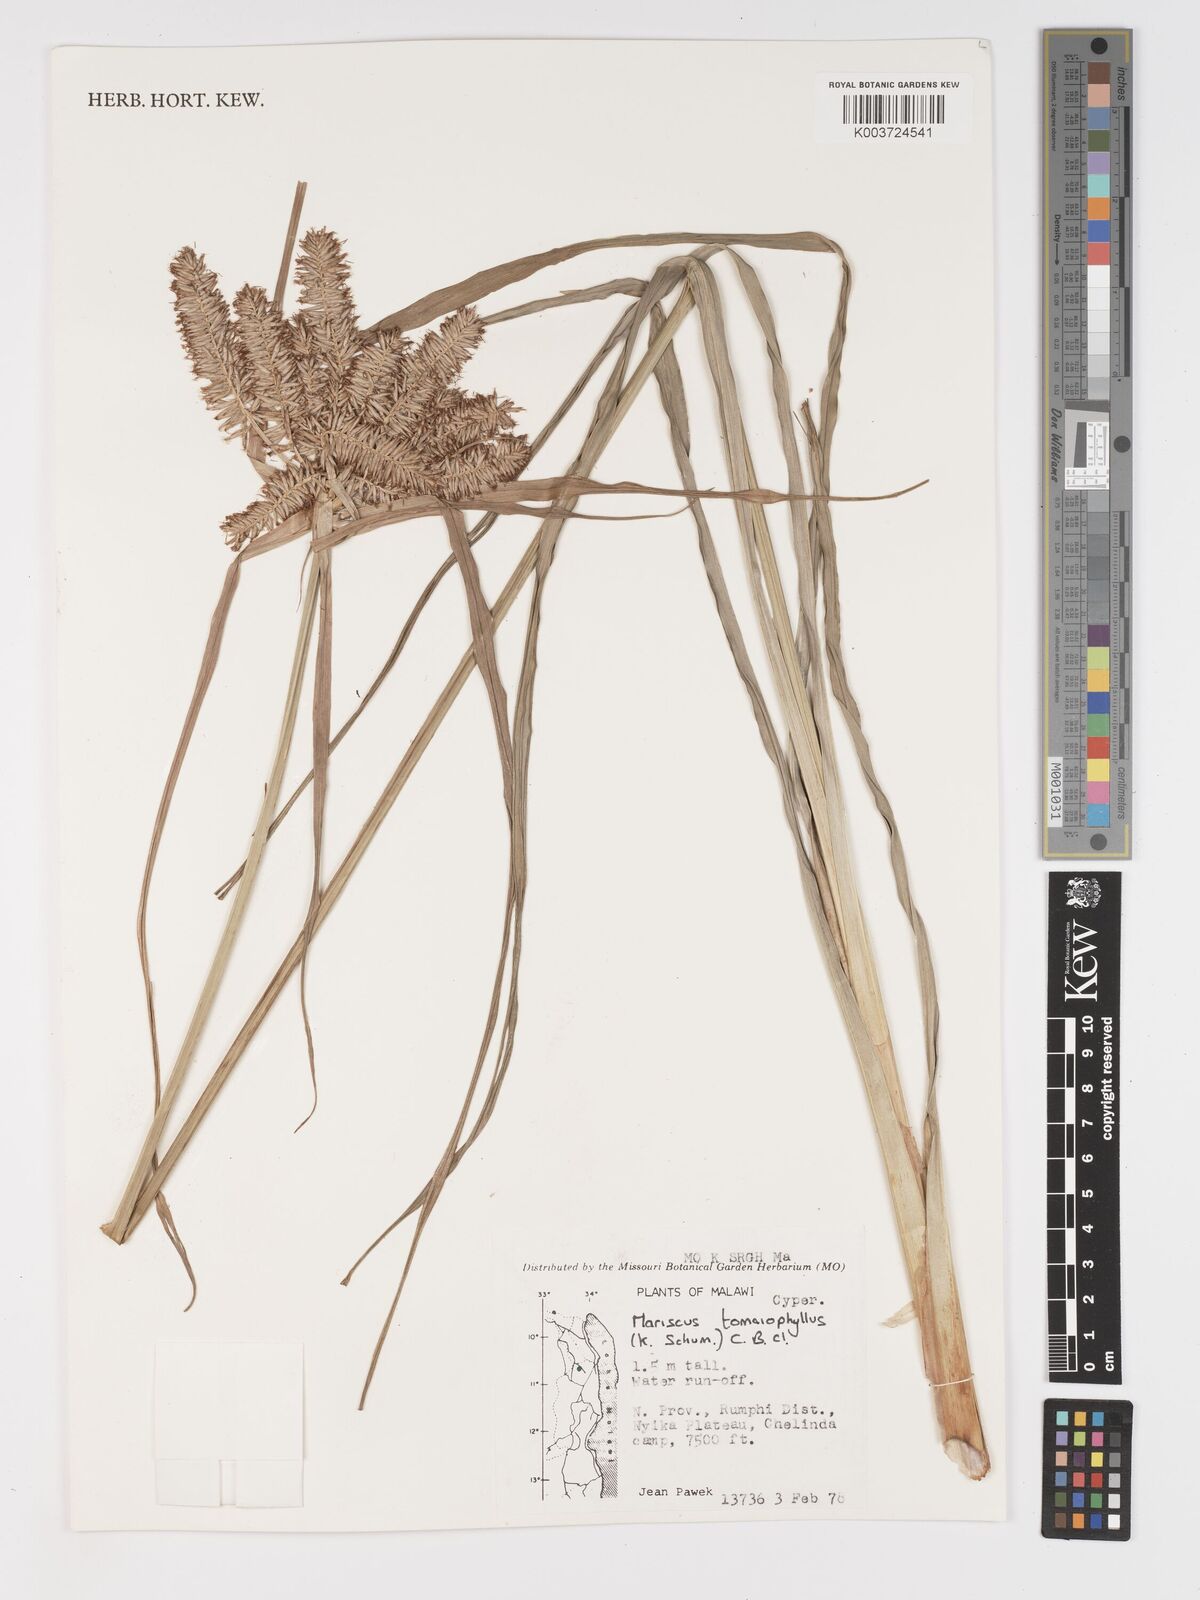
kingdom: Plantae
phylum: Tracheophyta
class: Liliopsida
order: Poales
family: Cyperaceae
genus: Cyperus
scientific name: Cyperus tomaiophyllus
